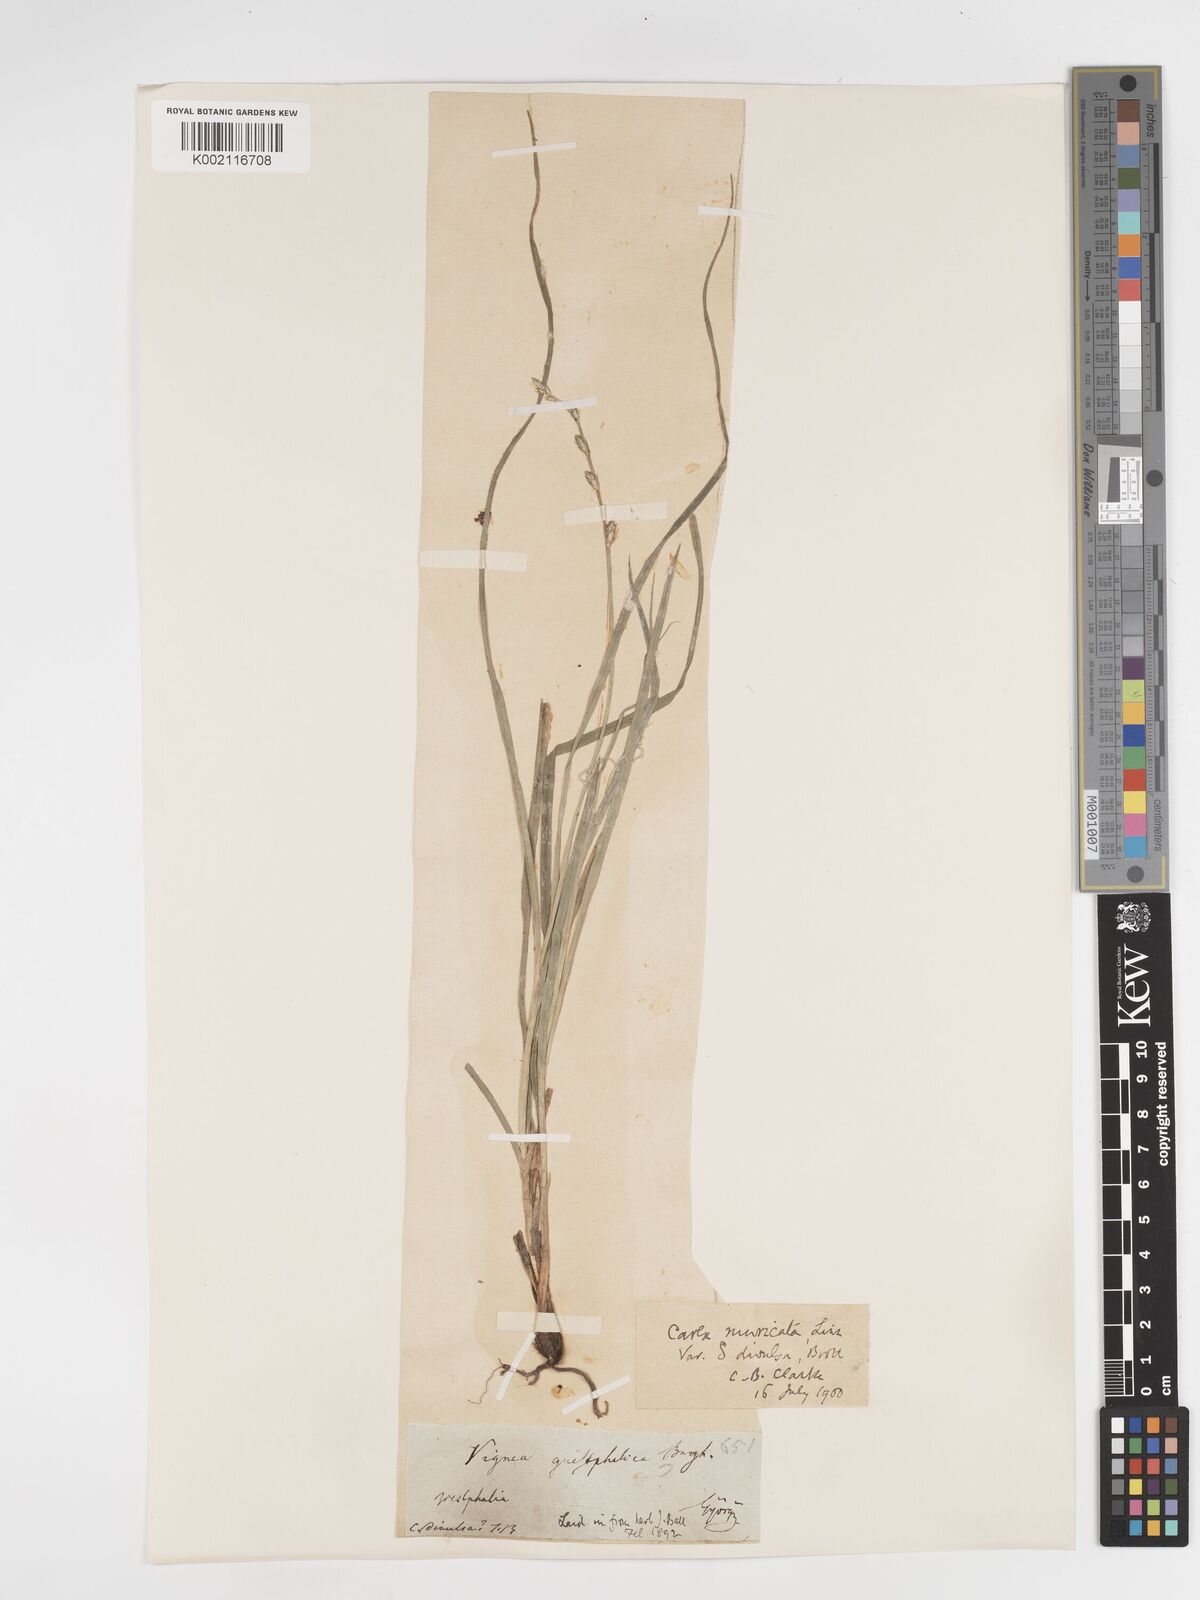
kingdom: Plantae
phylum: Tracheophyta
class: Liliopsida
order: Poales
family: Cyperaceae
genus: Carex
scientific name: Carex divulsa
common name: Grassland sedge
